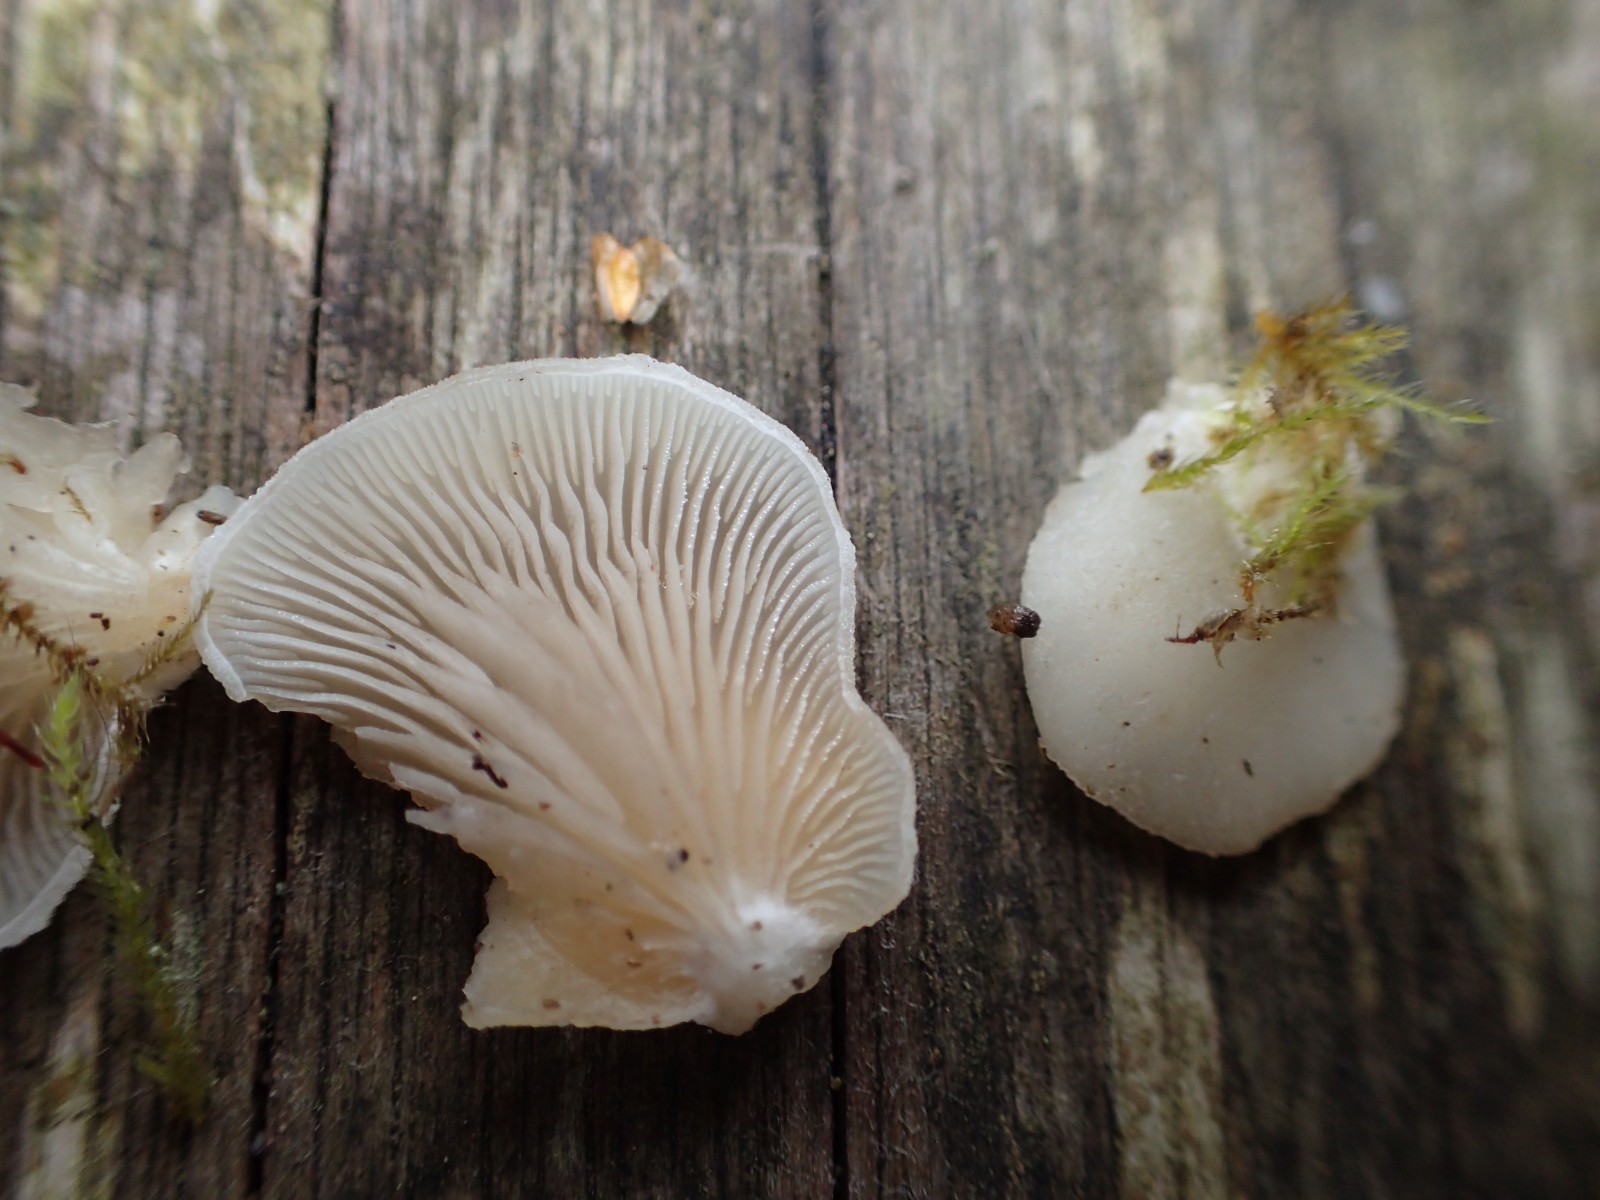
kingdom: Fungi
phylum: Basidiomycota
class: Agaricomycetes
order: Agaricales
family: Mycenaceae
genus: Panellus
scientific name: Panellus mitis
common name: mild epaulethat
